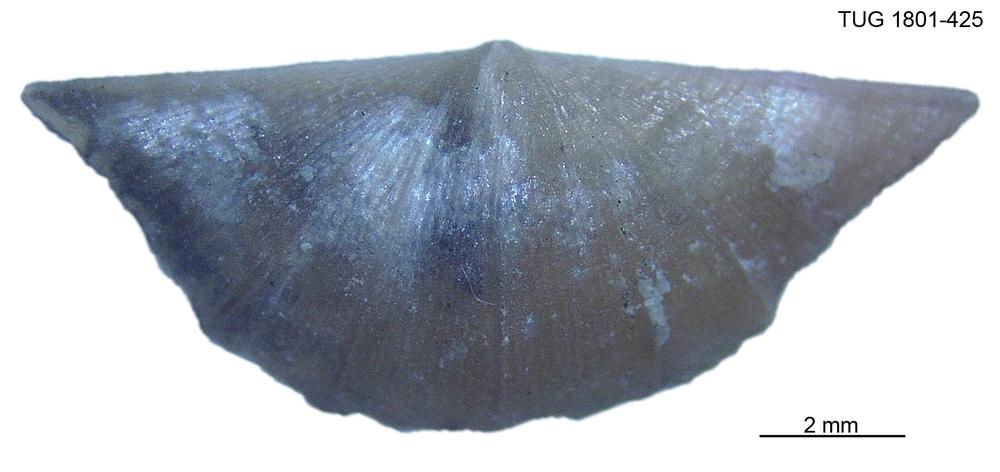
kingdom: Animalia
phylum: Brachiopoda
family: Oldhaminidae
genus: Eoplectodonta
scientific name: Eoplectodonta
